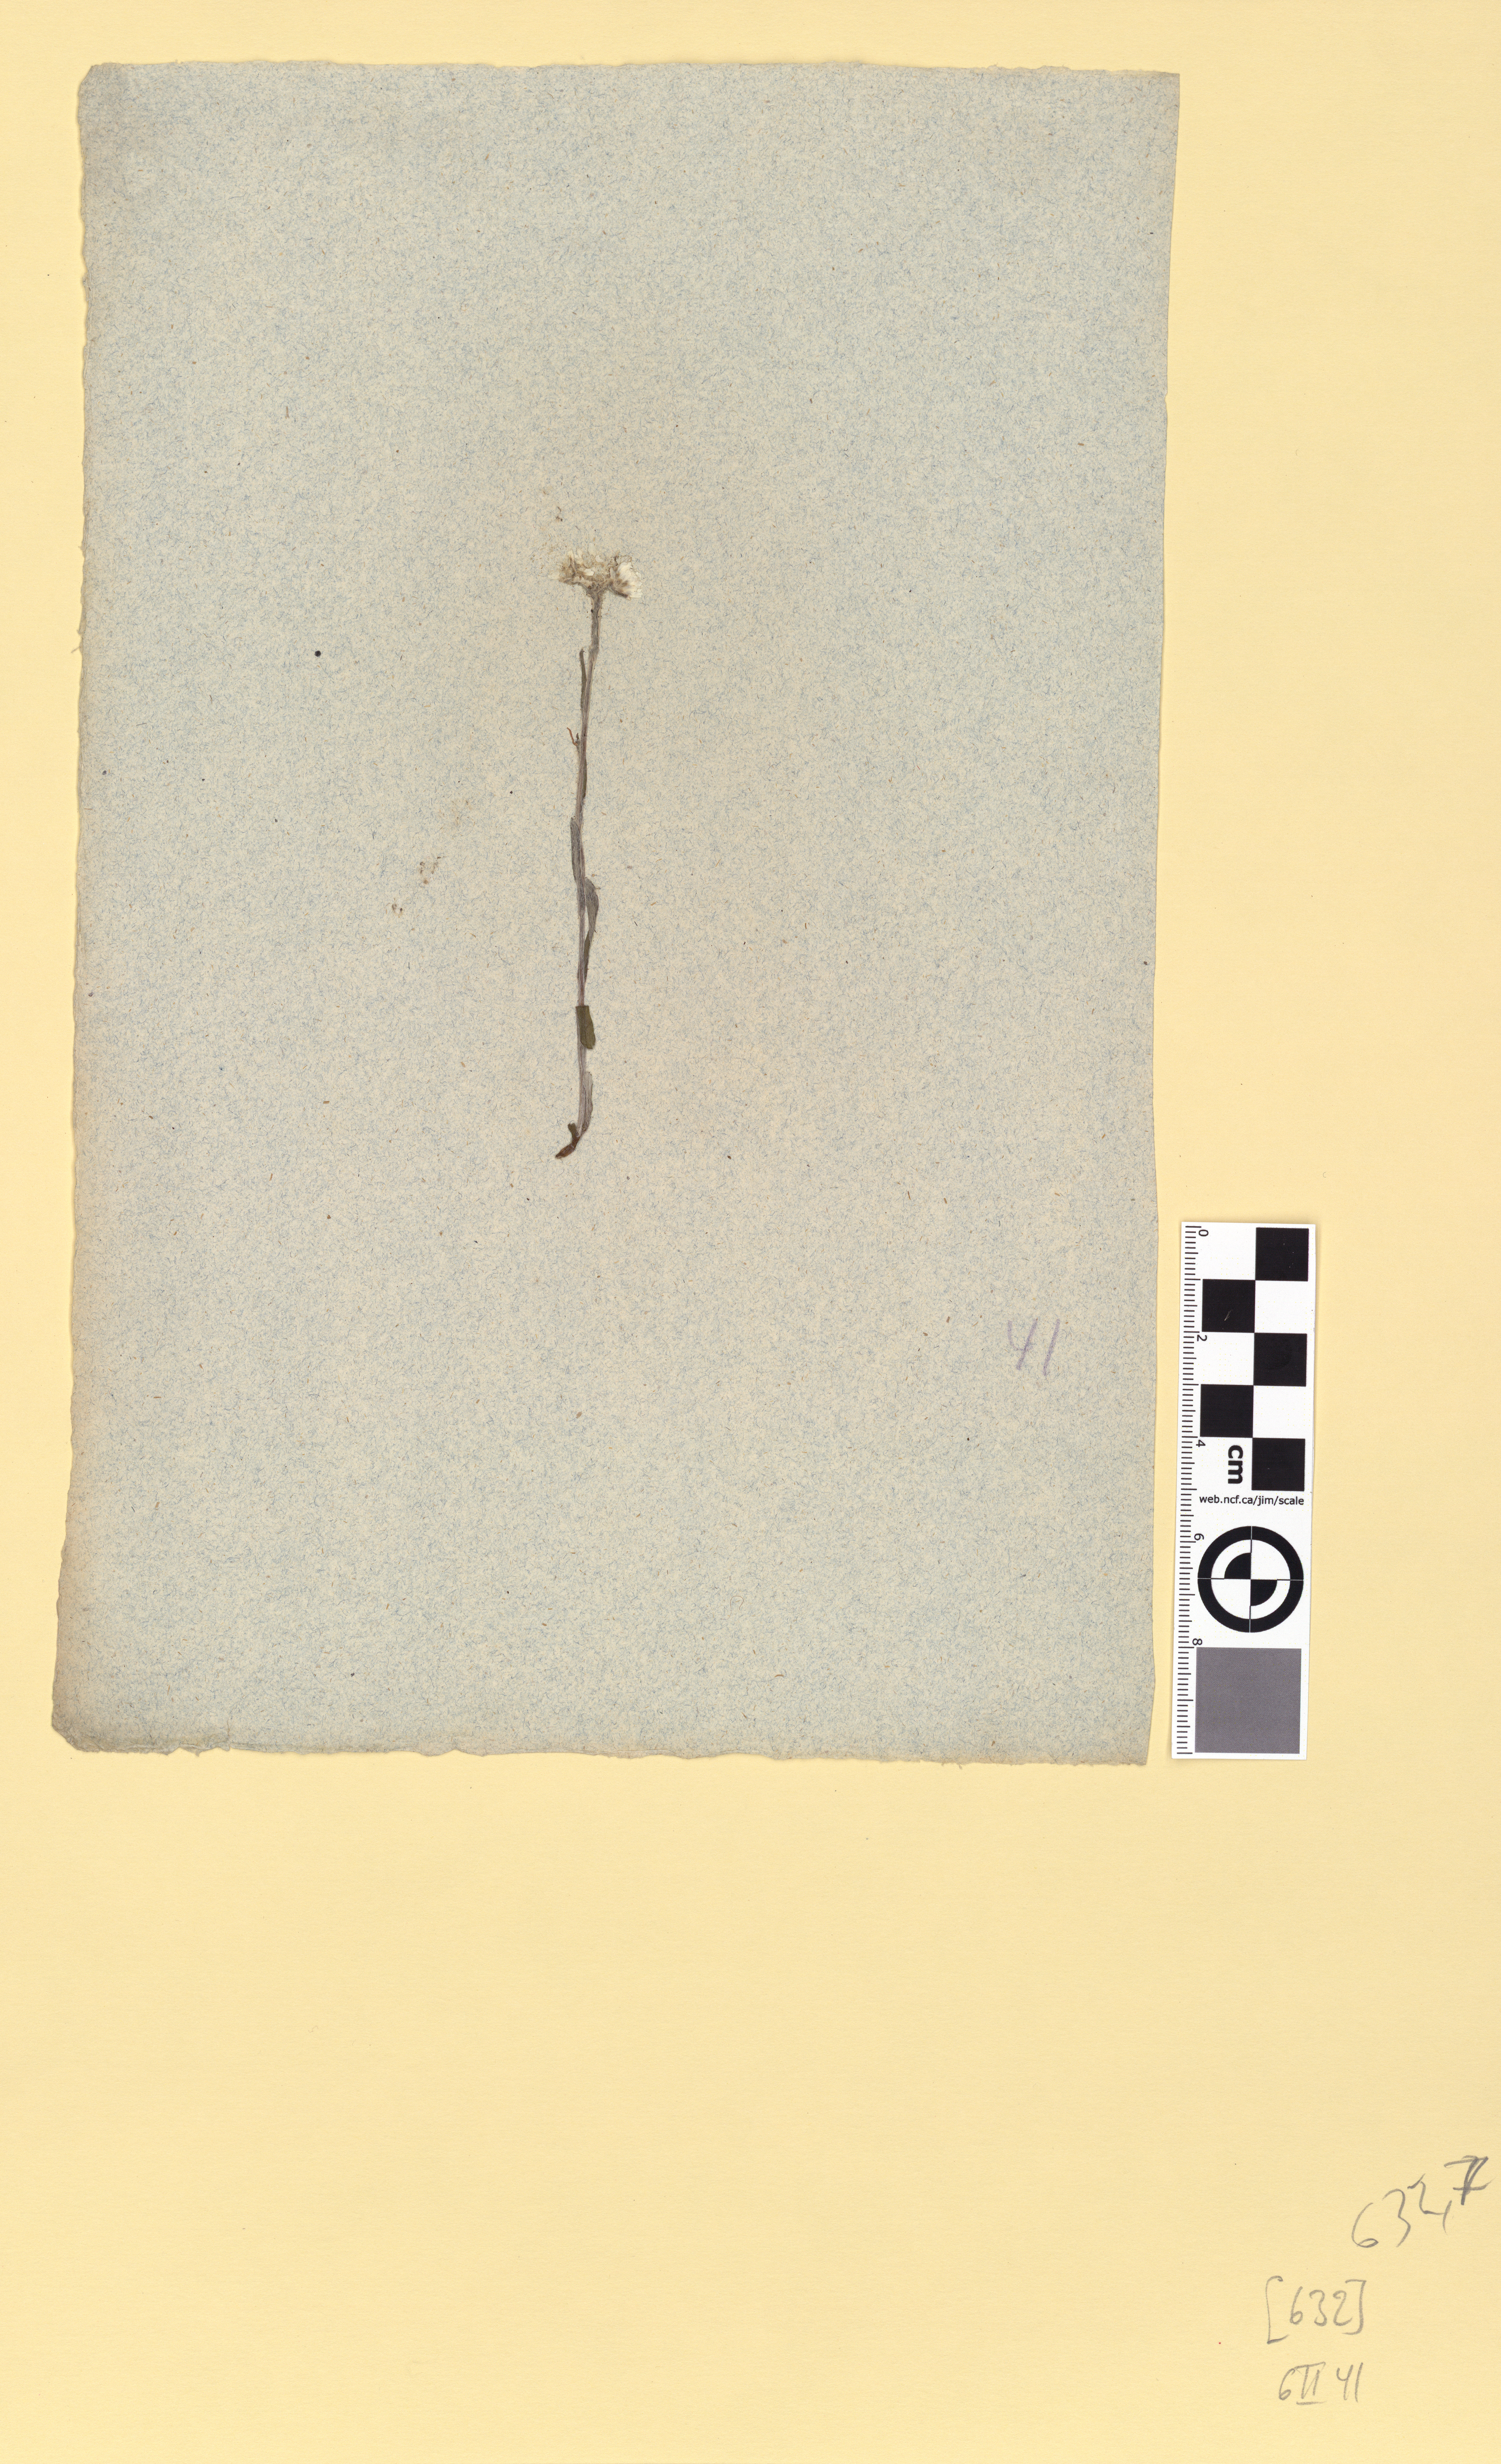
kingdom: Plantae
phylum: Tracheophyta
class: Magnoliopsida
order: Asterales
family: Asteraceae
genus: Antennaria
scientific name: Antennaria dioica
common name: Mountain everlasting
